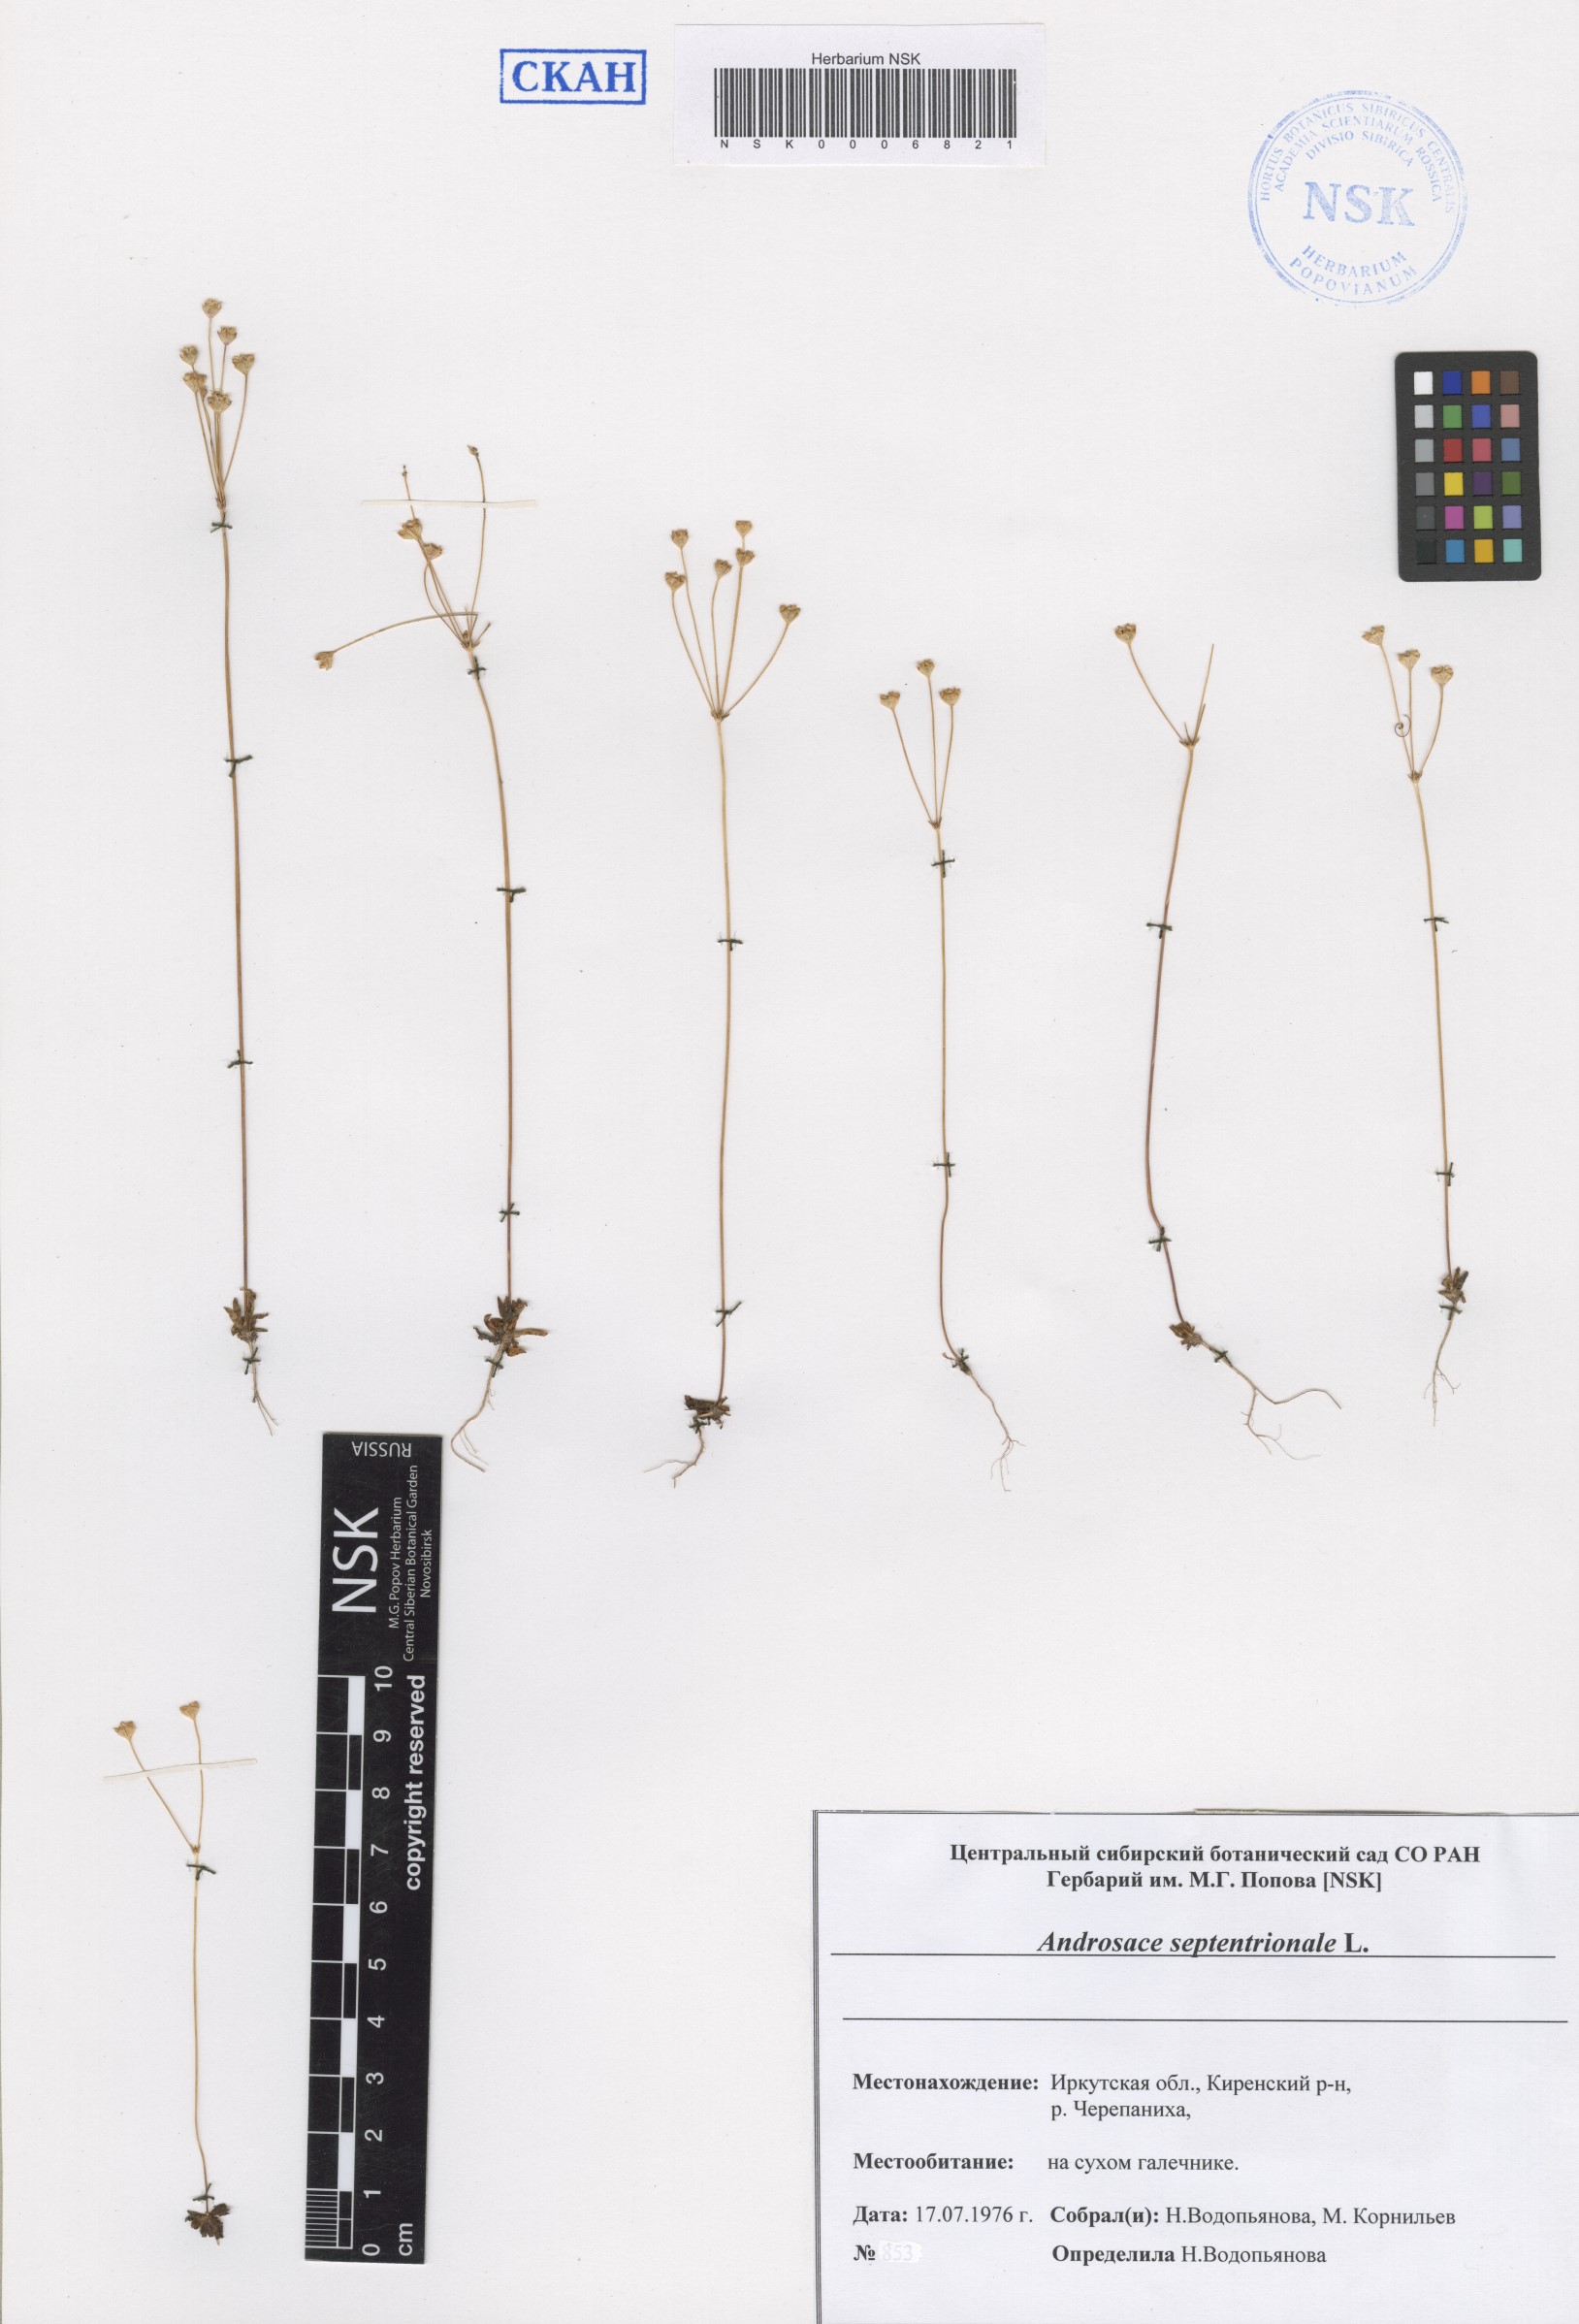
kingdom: Plantae
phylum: Tracheophyta
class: Magnoliopsida
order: Ericales
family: Primulaceae
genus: Androsace
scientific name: Androsace septentrionalis
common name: Hairy northern fairy-candelabra
